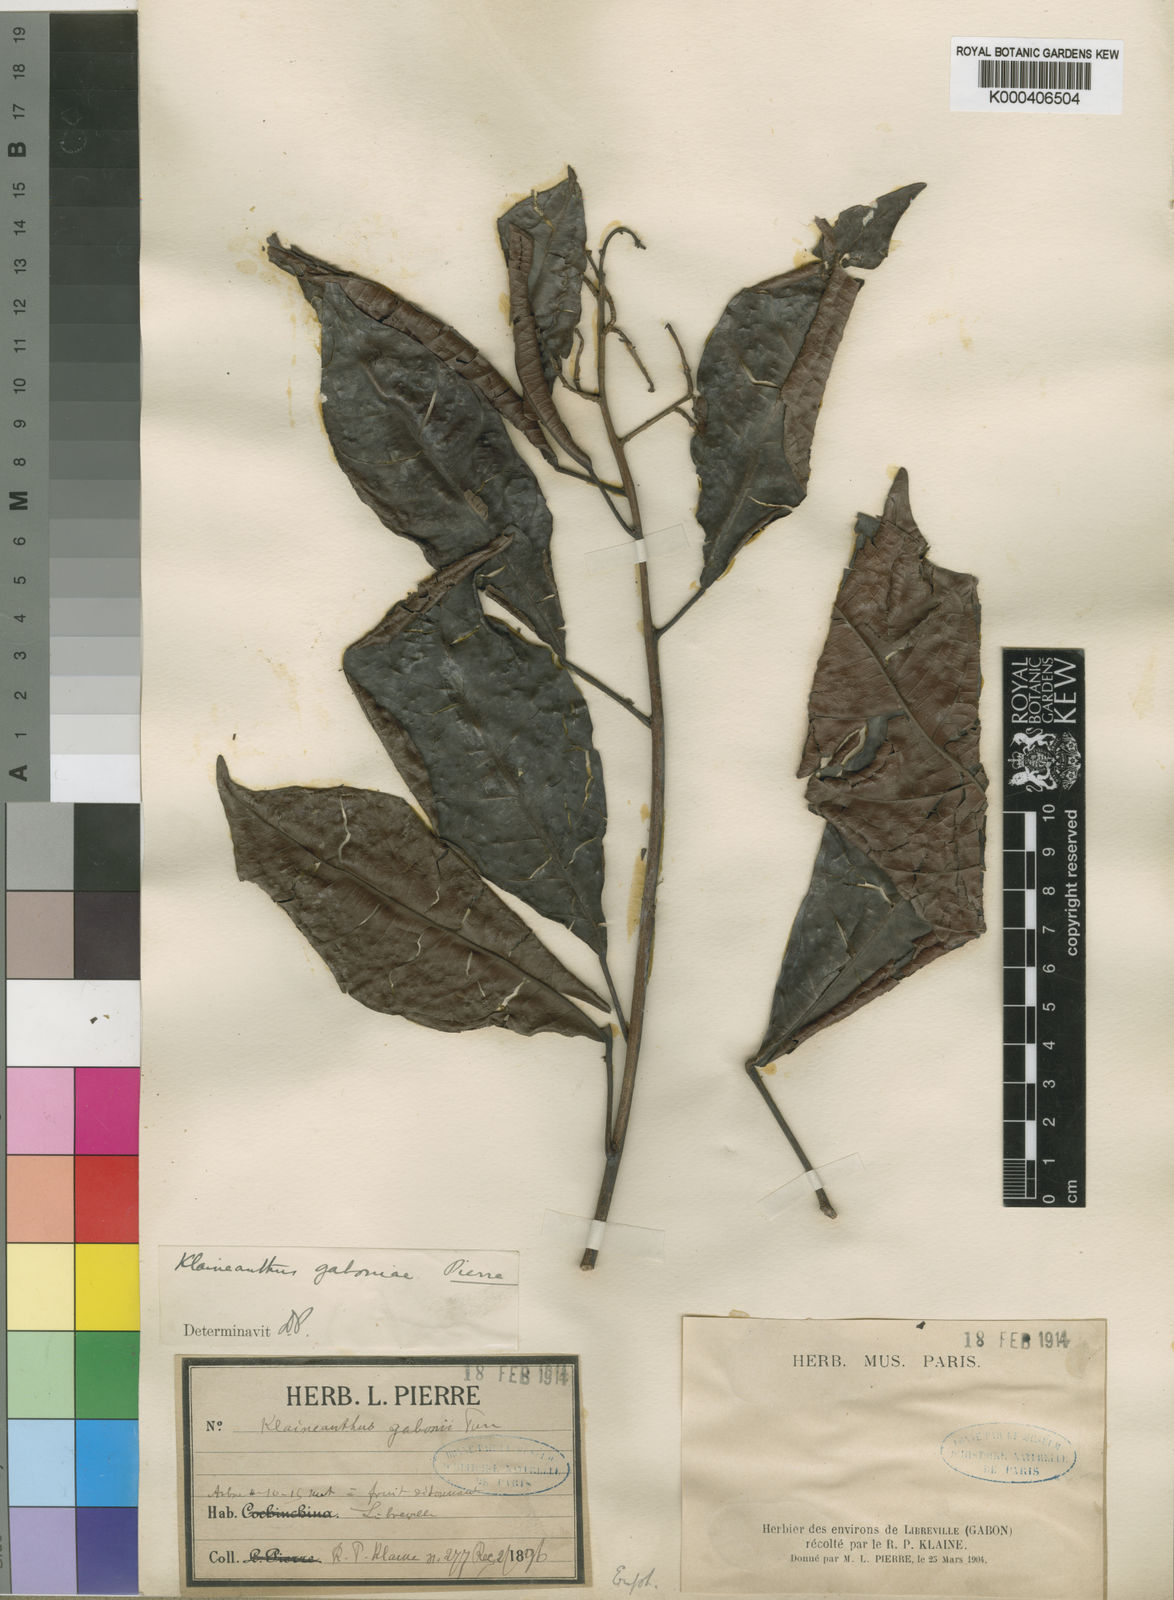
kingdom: Plantae
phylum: Tracheophyta
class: Magnoliopsida
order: Malpighiales
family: Euphorbiaceae
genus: Klaineanthus
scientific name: Klaineanthus
